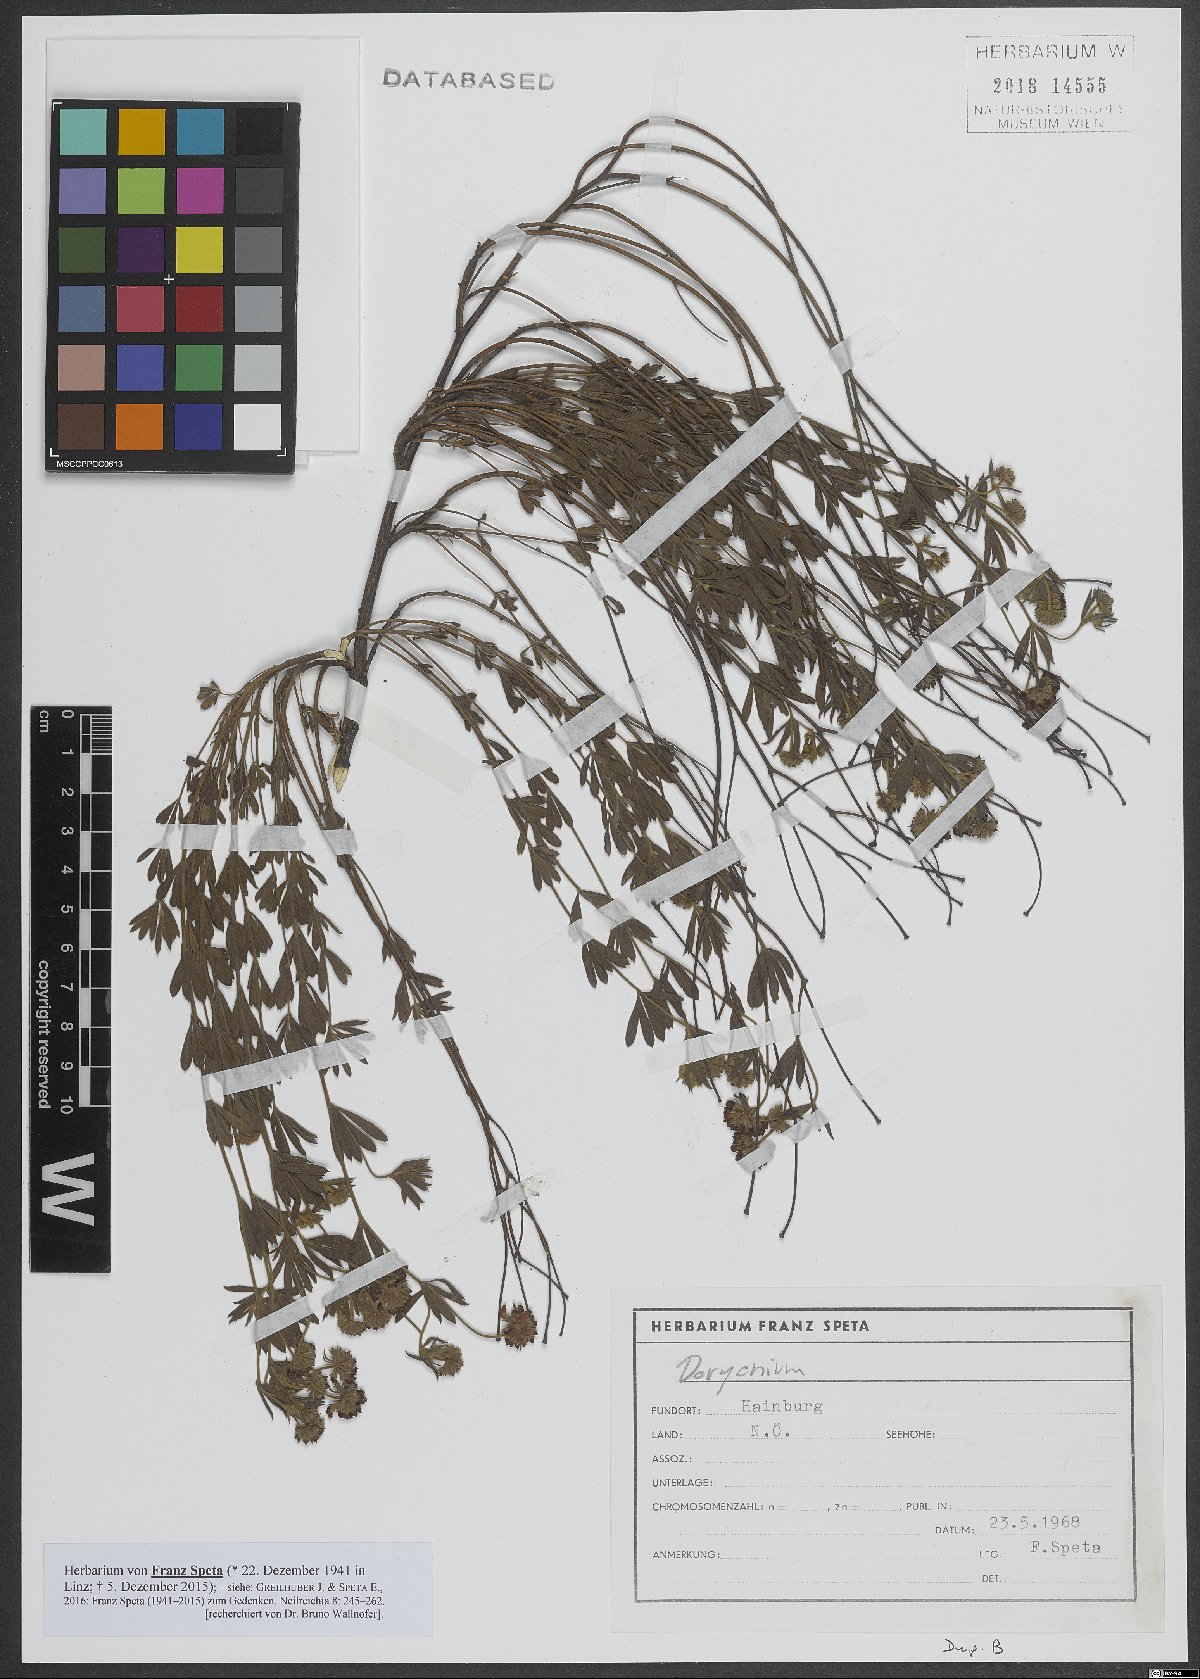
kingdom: Plantae
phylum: Tracheophyta
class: Magnoliopsida
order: Fabales
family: Fabaceae
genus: Lotus
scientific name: Lotus
